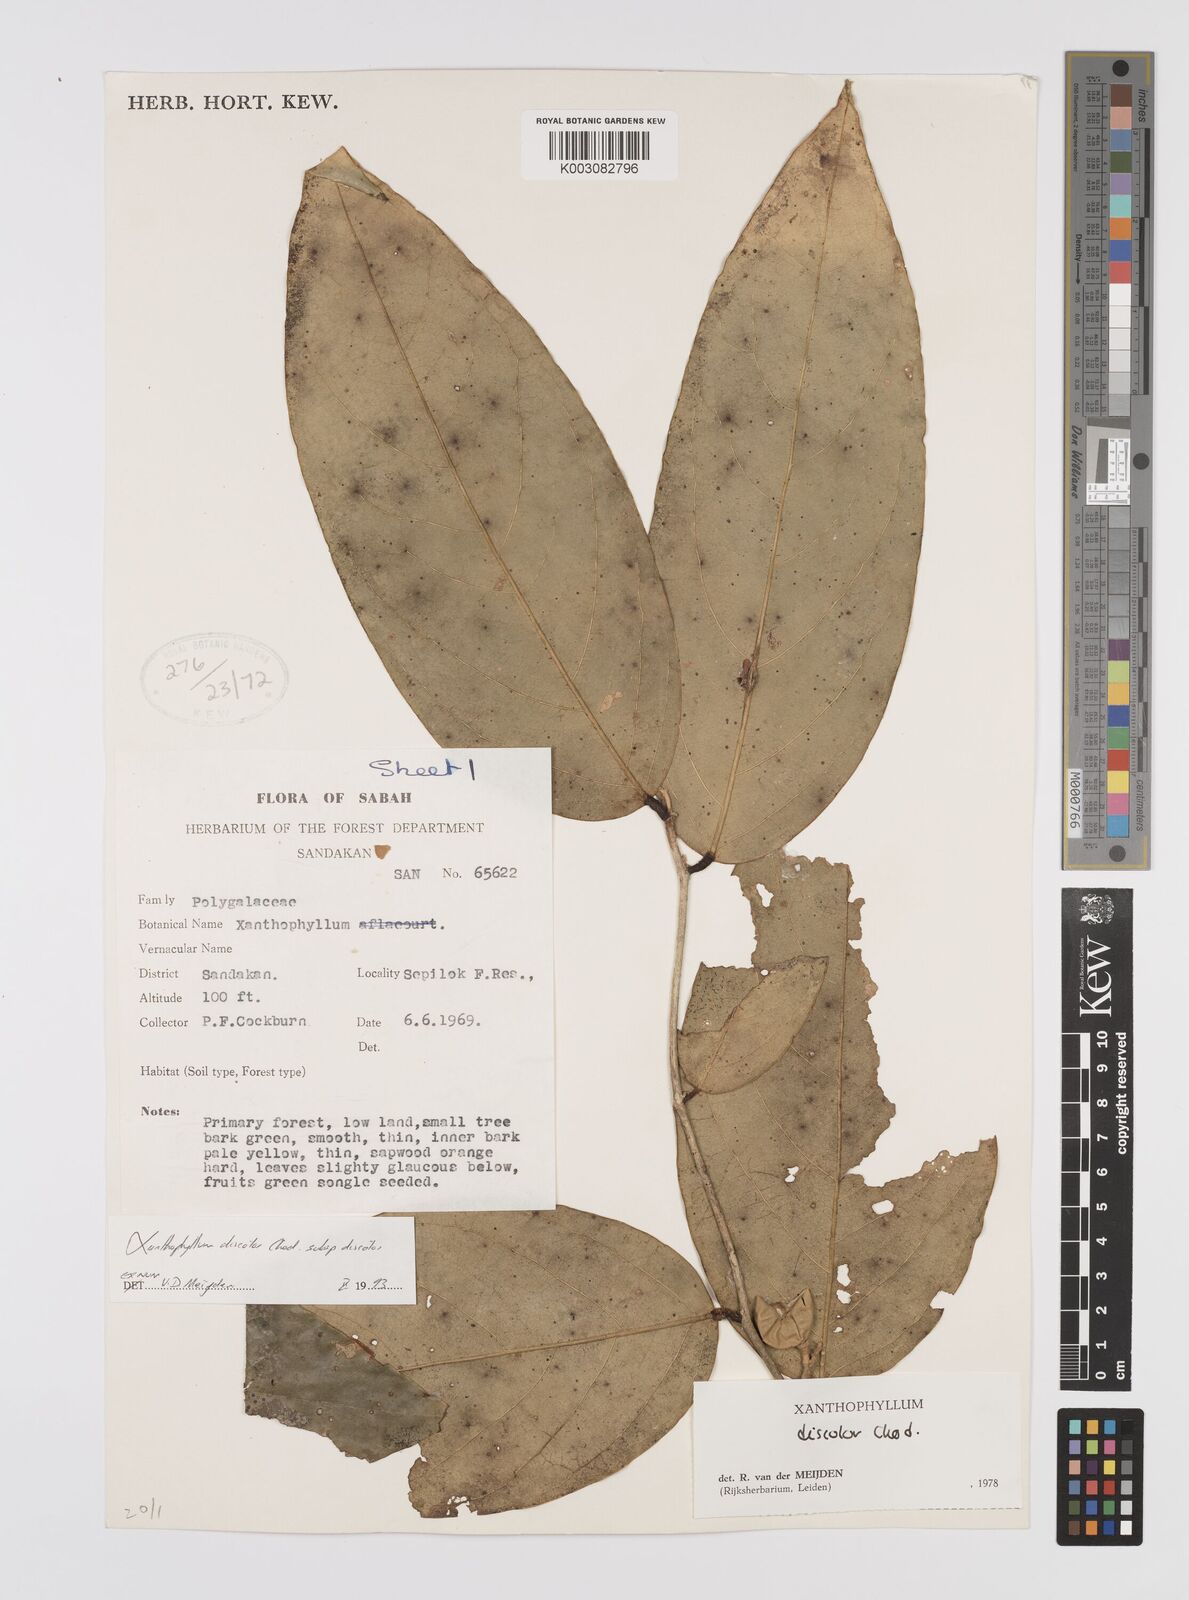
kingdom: Plantae
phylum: Tracheophyta
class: Magnoliopsida
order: Fabales
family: Polygalaceae
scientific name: Polygalaceae
